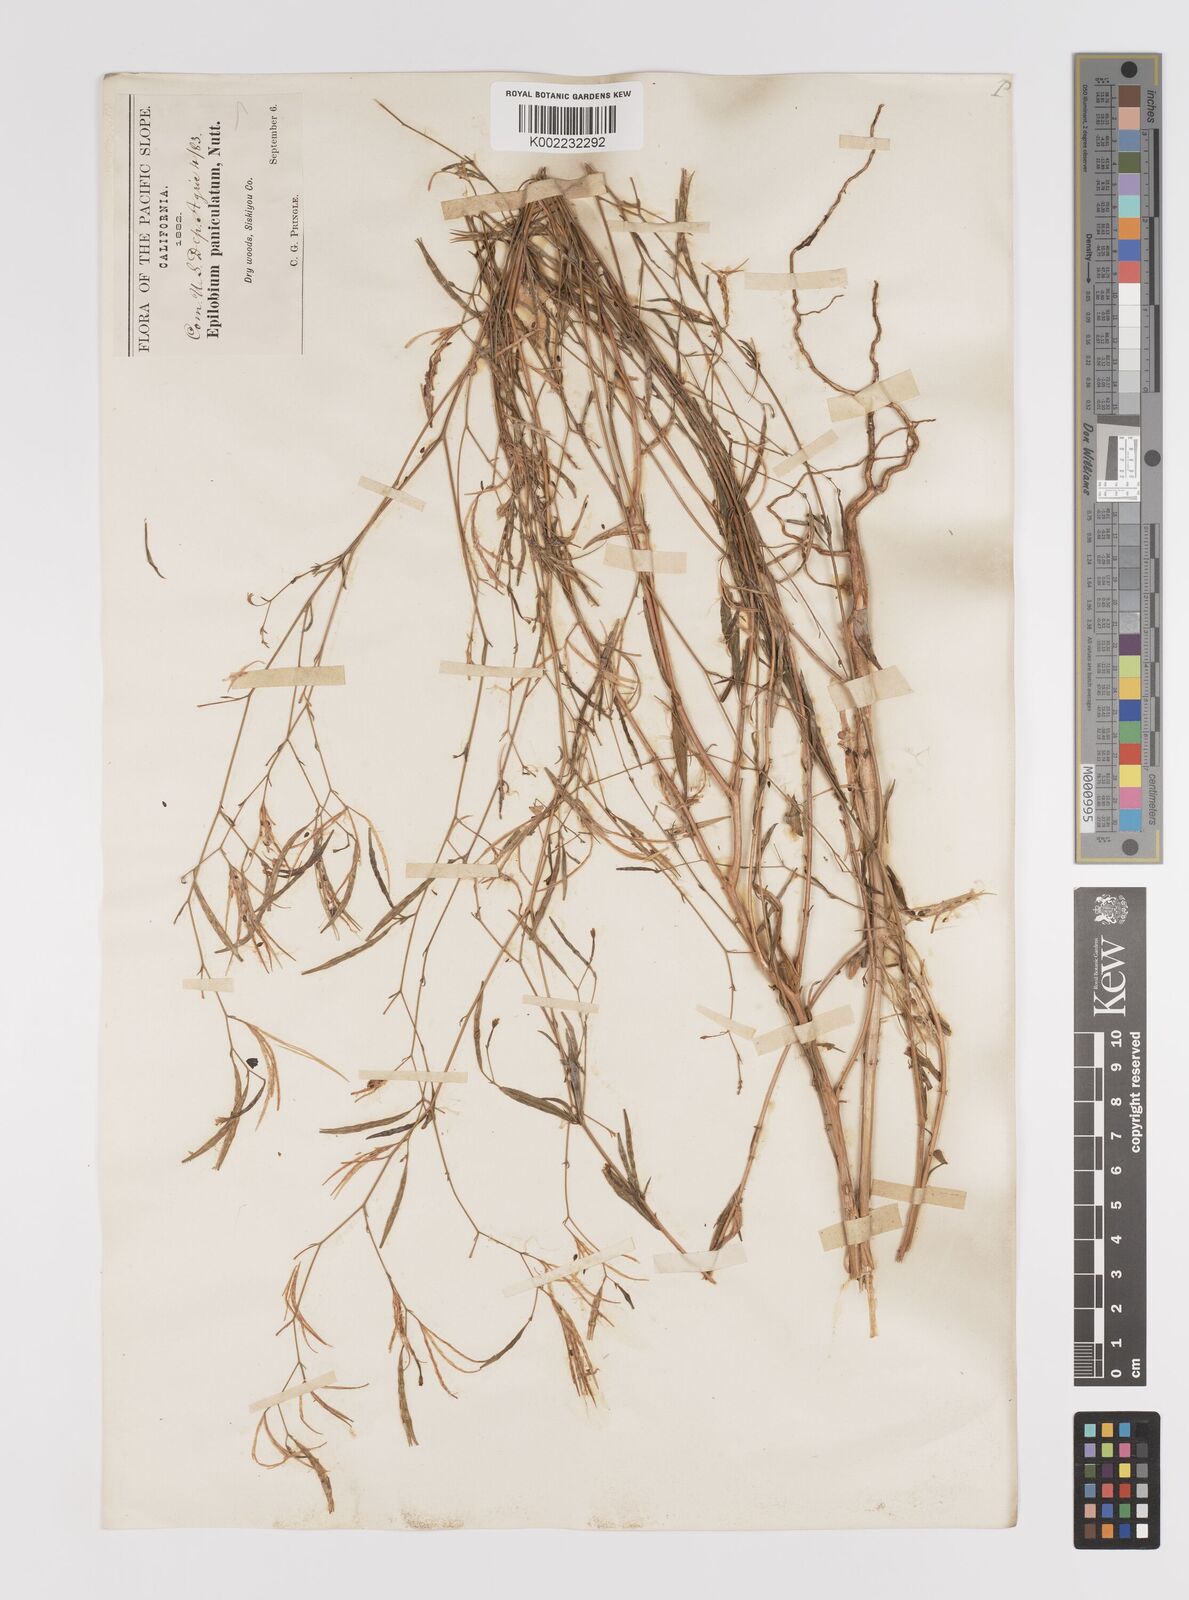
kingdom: Plantae
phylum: Tracheophyta
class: Magnoliopsida
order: Myrtales
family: Onagraceae
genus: Epilobium
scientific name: Epilobium
